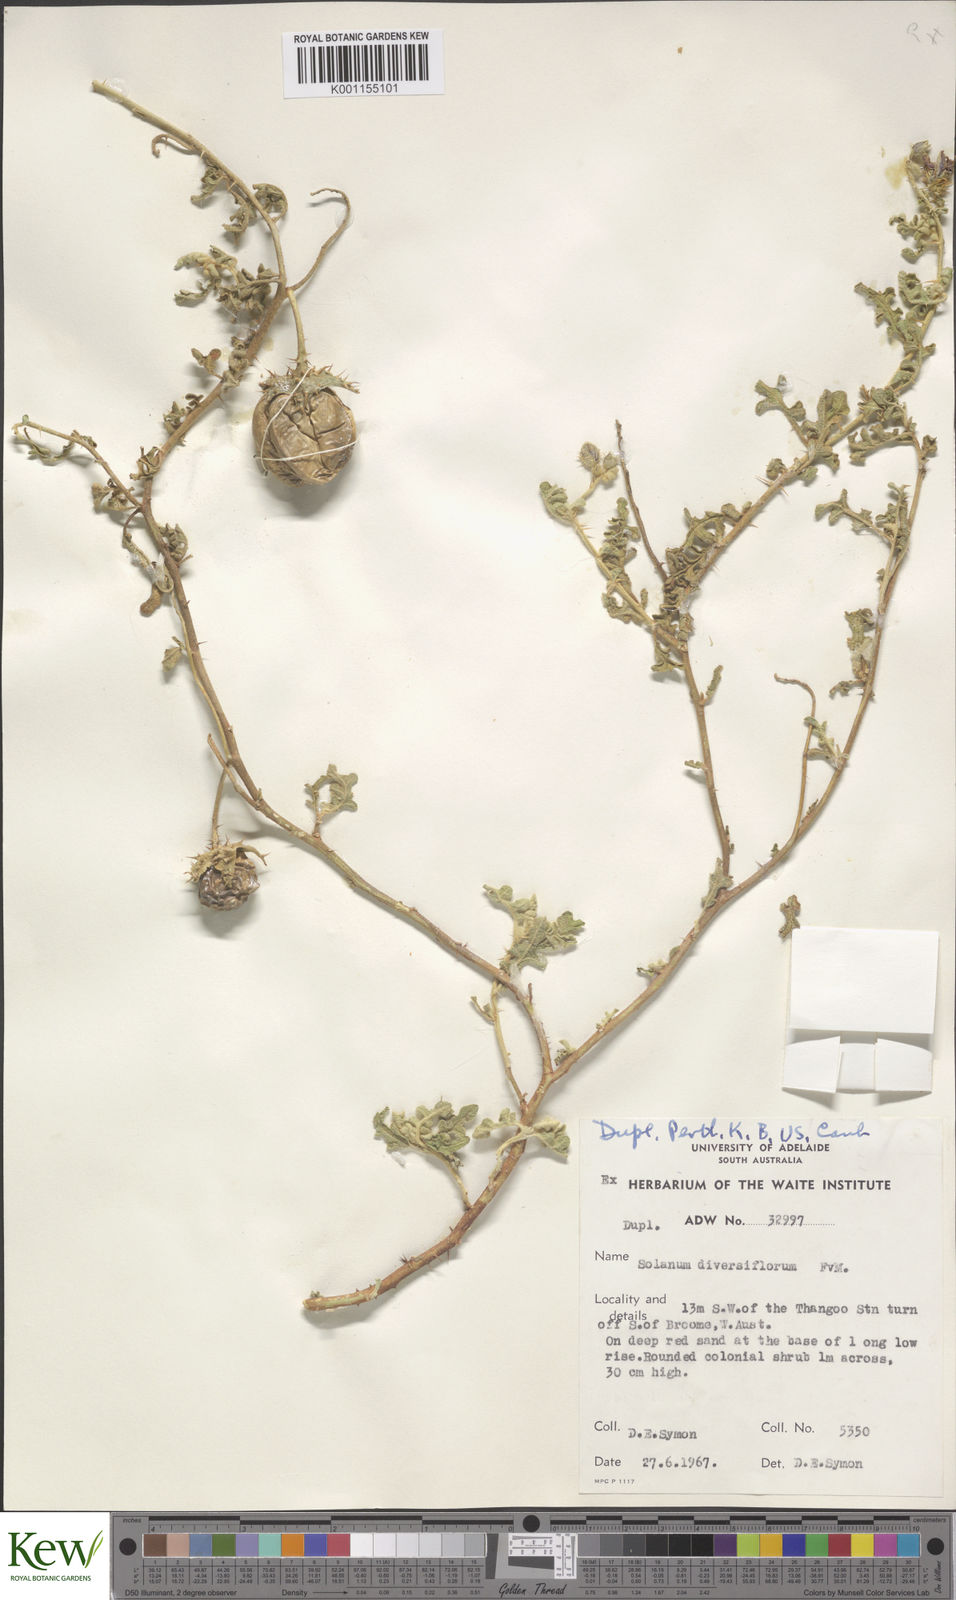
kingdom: Plantae
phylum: Tracheophyta
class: Magnoliopsida
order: Solanales
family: Solanaceae
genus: Solanum
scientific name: Solanum diversiflorum
